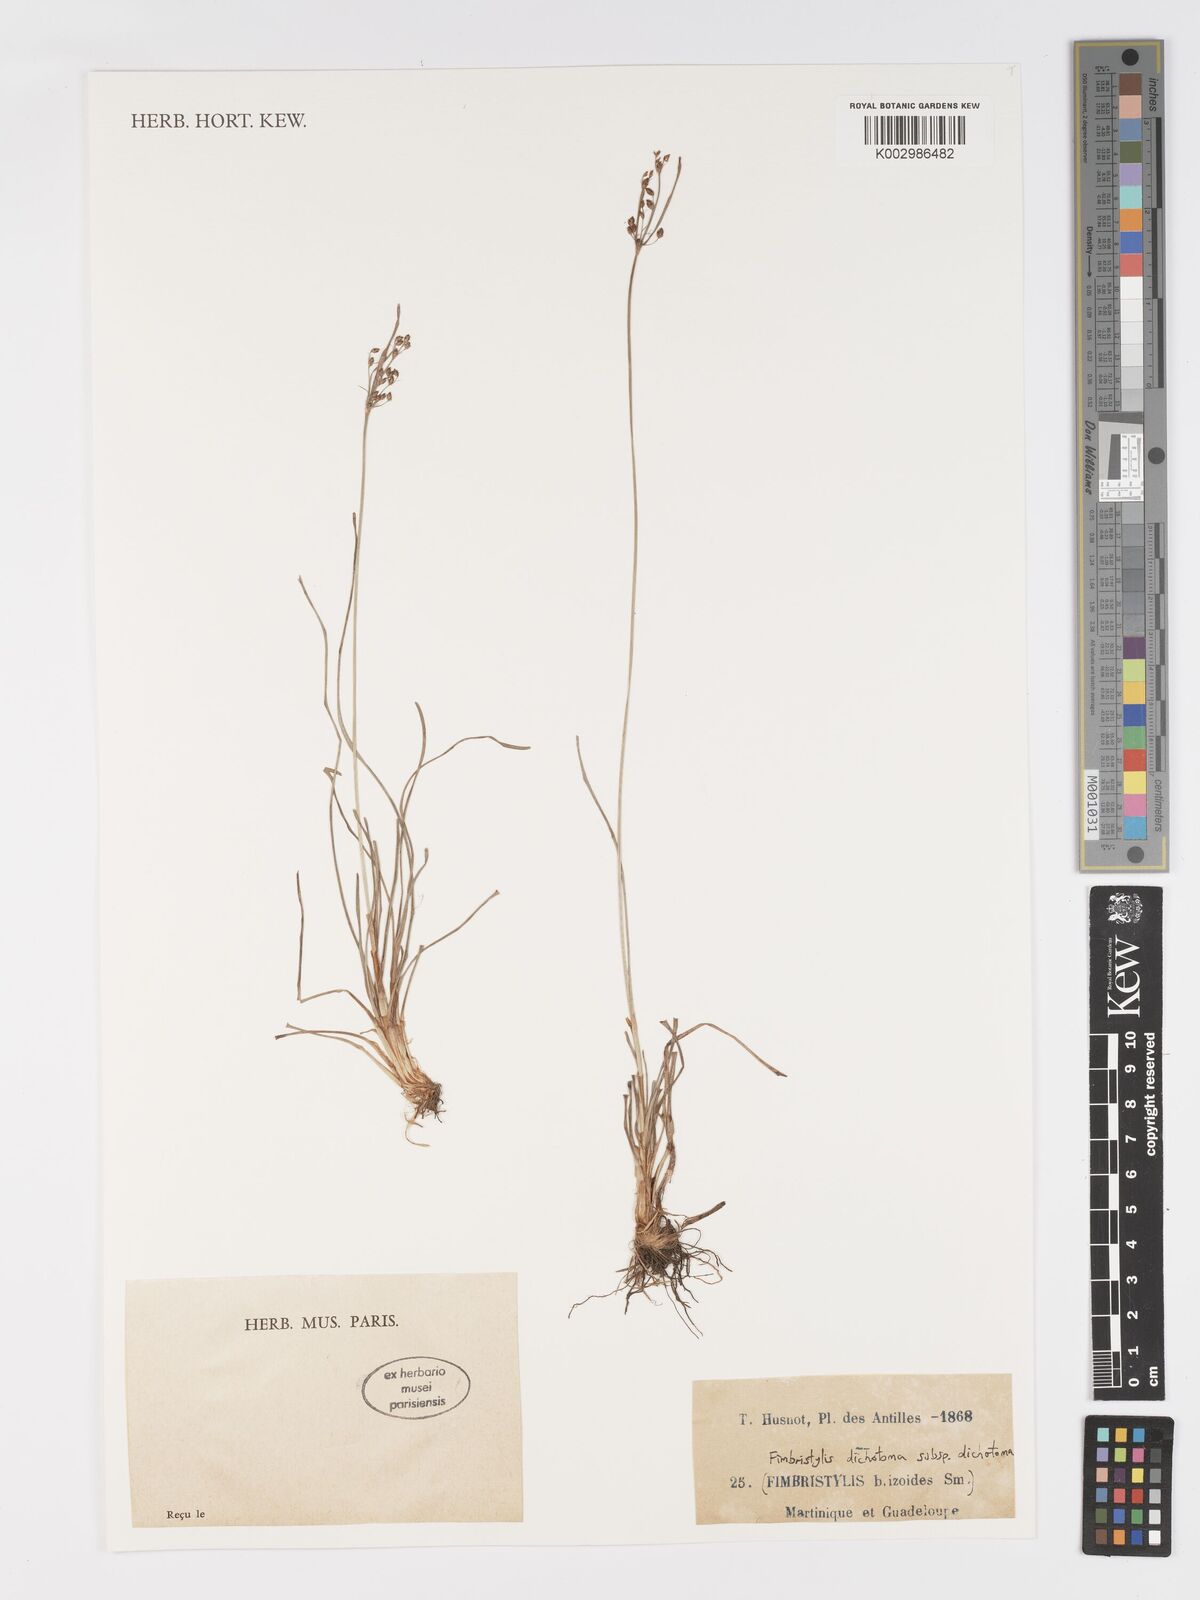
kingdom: Plantae
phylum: Tracheophyta
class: Liliopsida
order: Poales
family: Cyperaceae
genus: Fimbristylis
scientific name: Fimbristylis dichotoma
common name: Forked fimbry
